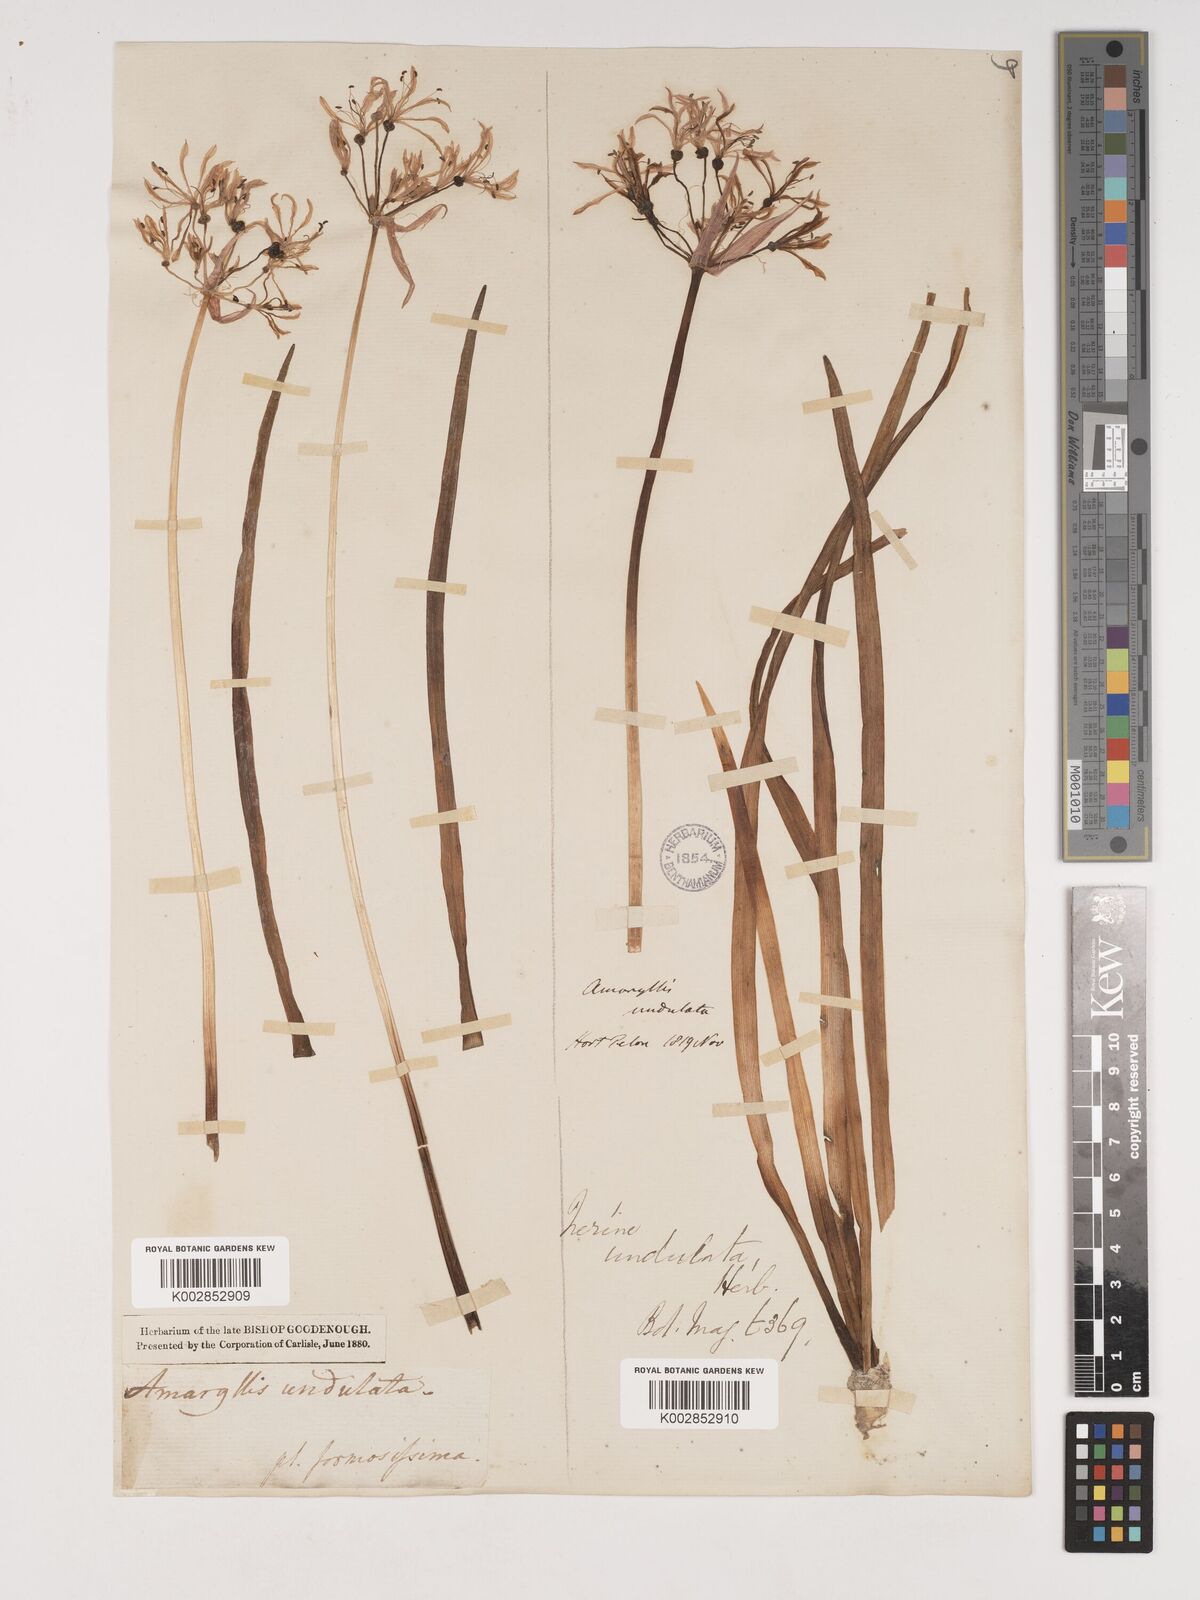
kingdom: Plantae
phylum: Tracheophyta
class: Liliopsida
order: Asparagales
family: Amaryllidaceae
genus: Nerine
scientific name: Nerine undulata
